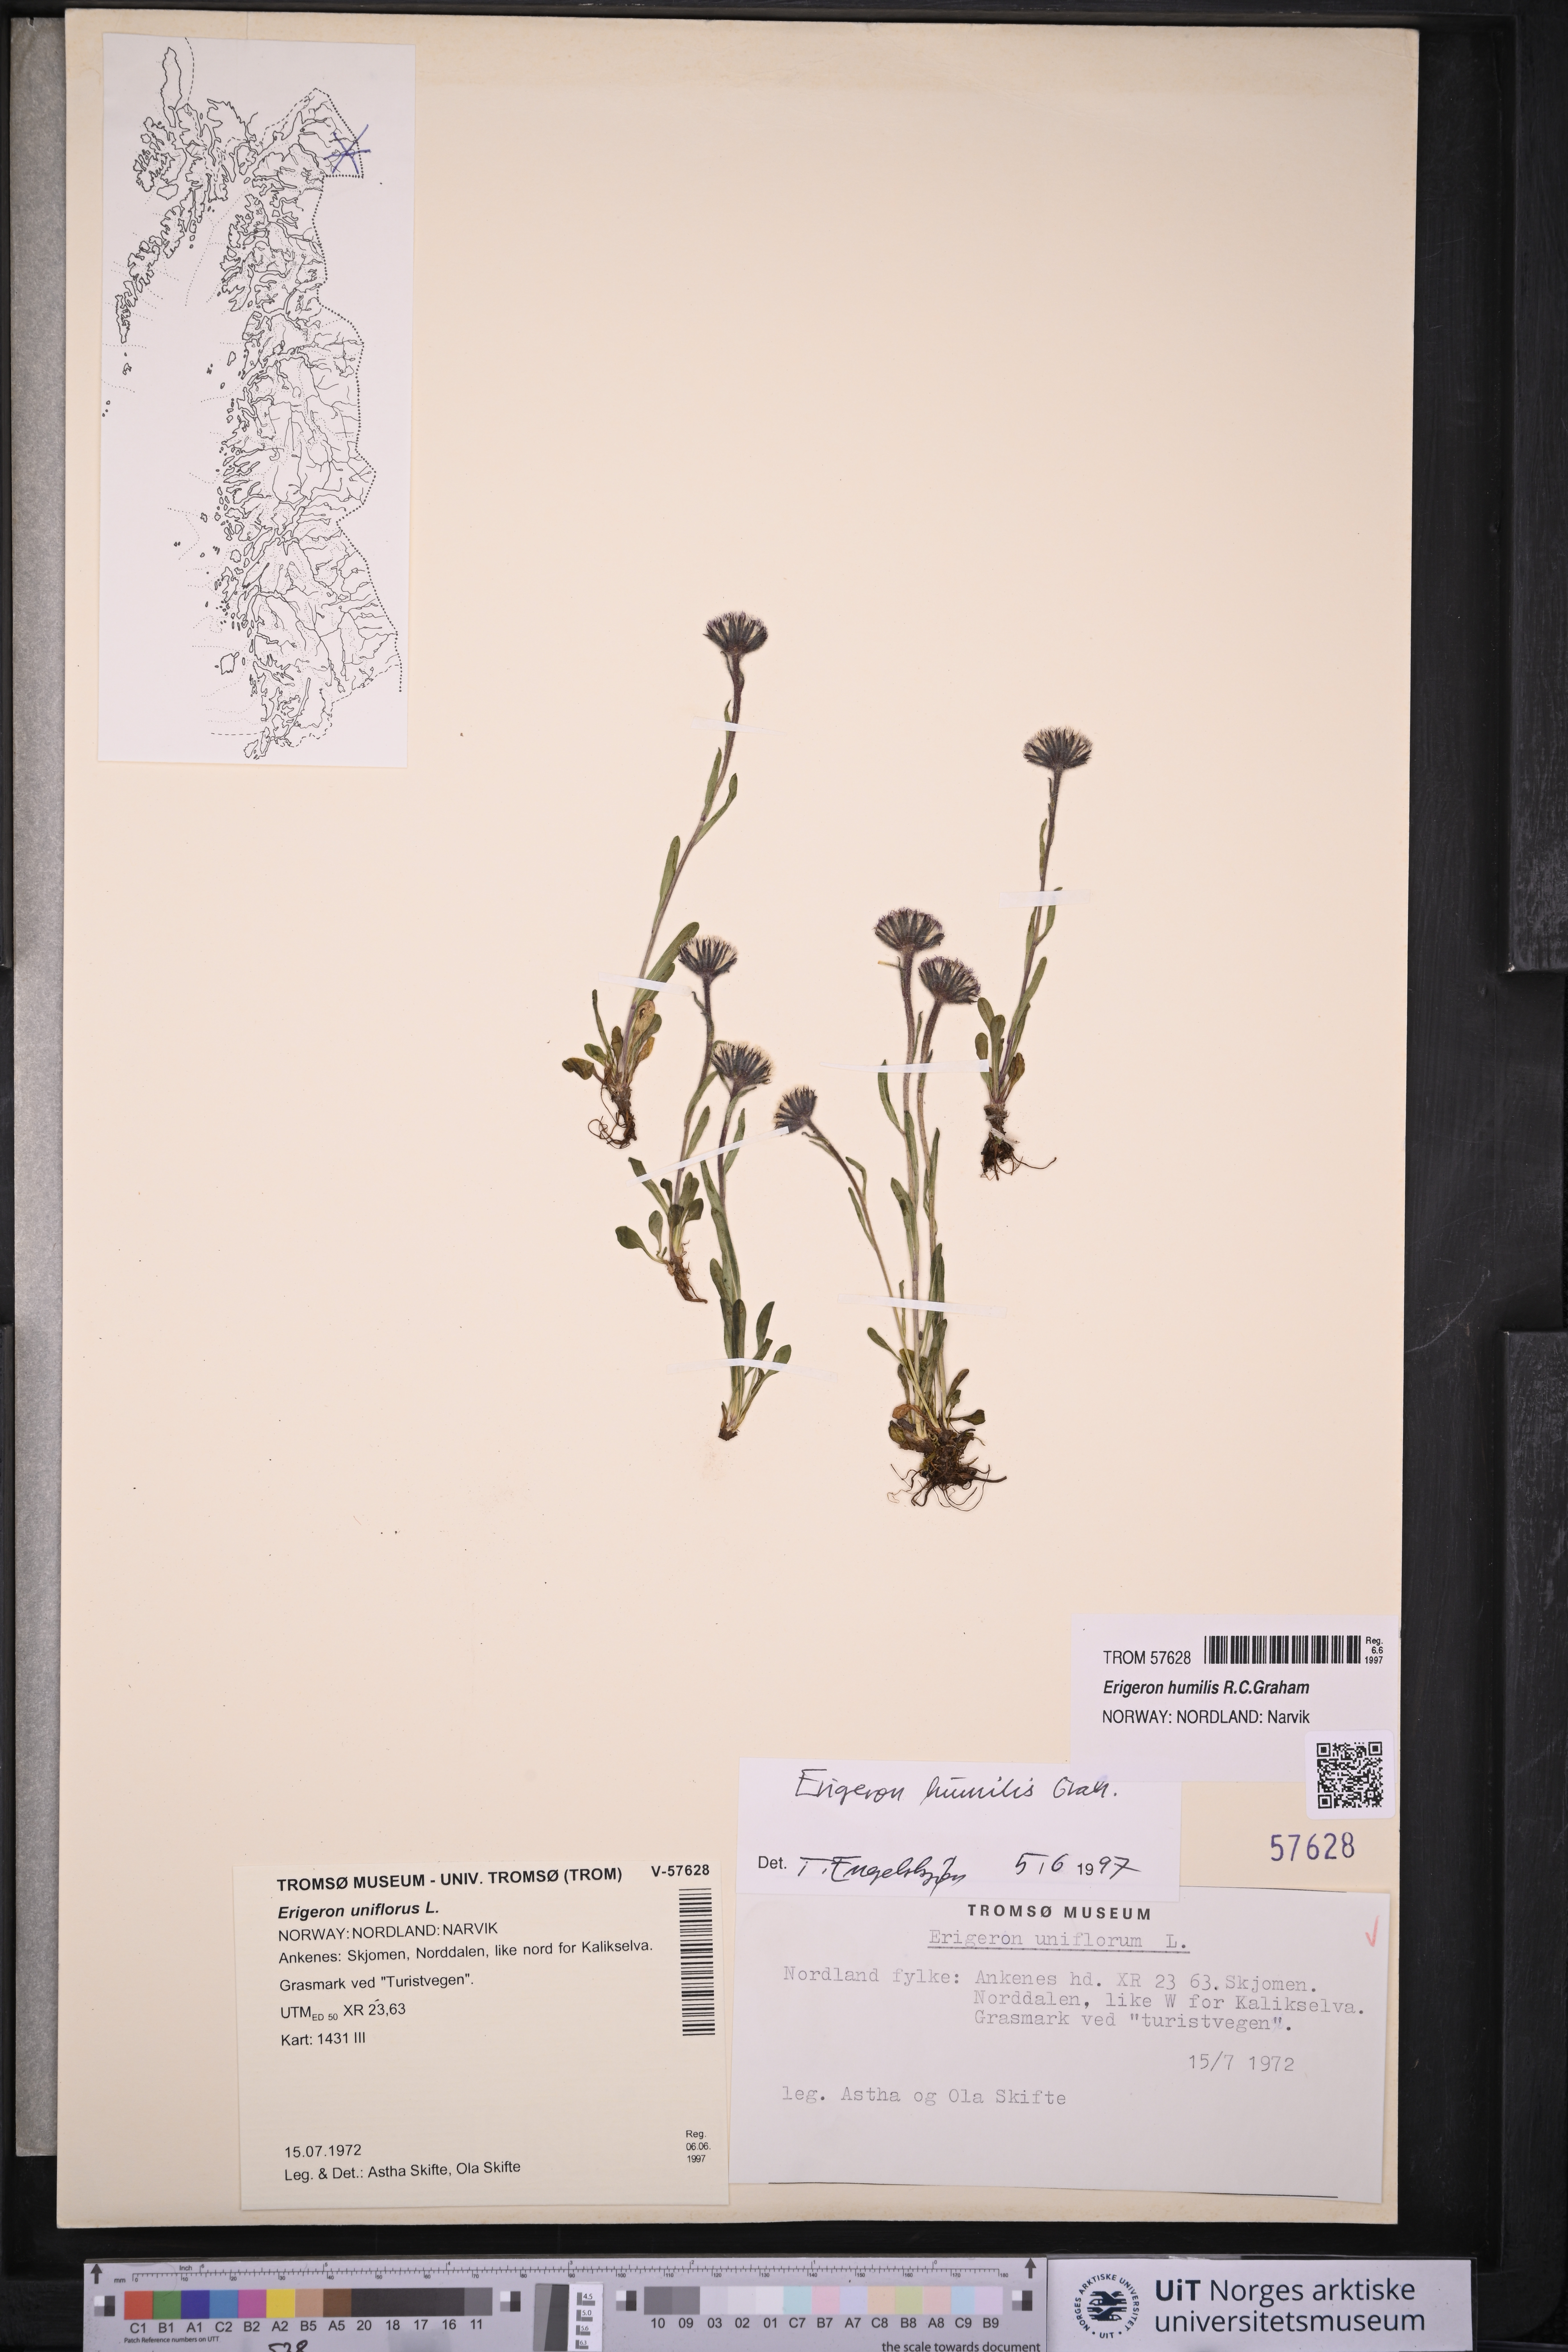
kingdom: Plantae
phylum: Tracheophyta
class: Magnoliopsida
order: Asterales
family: Asteraceae
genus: Erigeron
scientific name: Erigeron humilis
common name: Arctic-alpine fleabane
